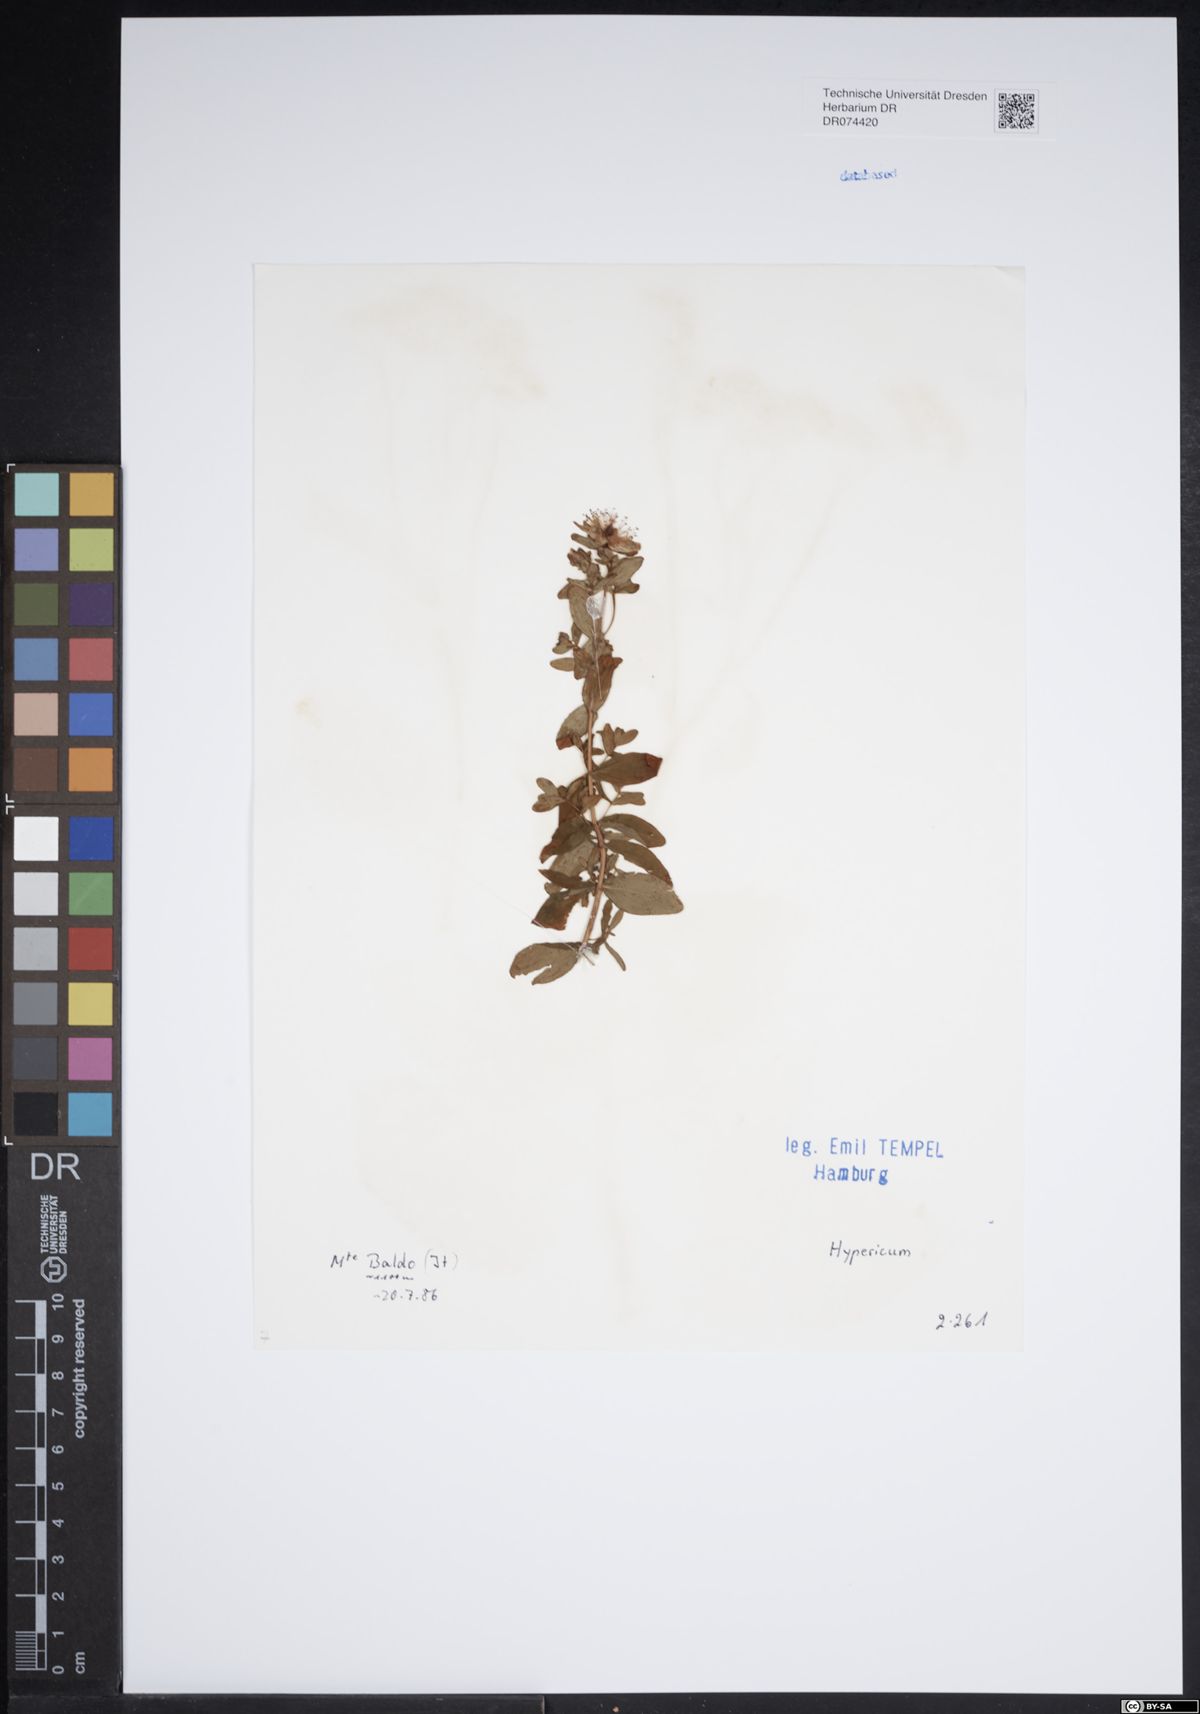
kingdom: Plantae
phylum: Tracheophyta
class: Magnoliopsida
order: Malpighiales
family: Hypericaceae
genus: Hypericum
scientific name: Hypericum
